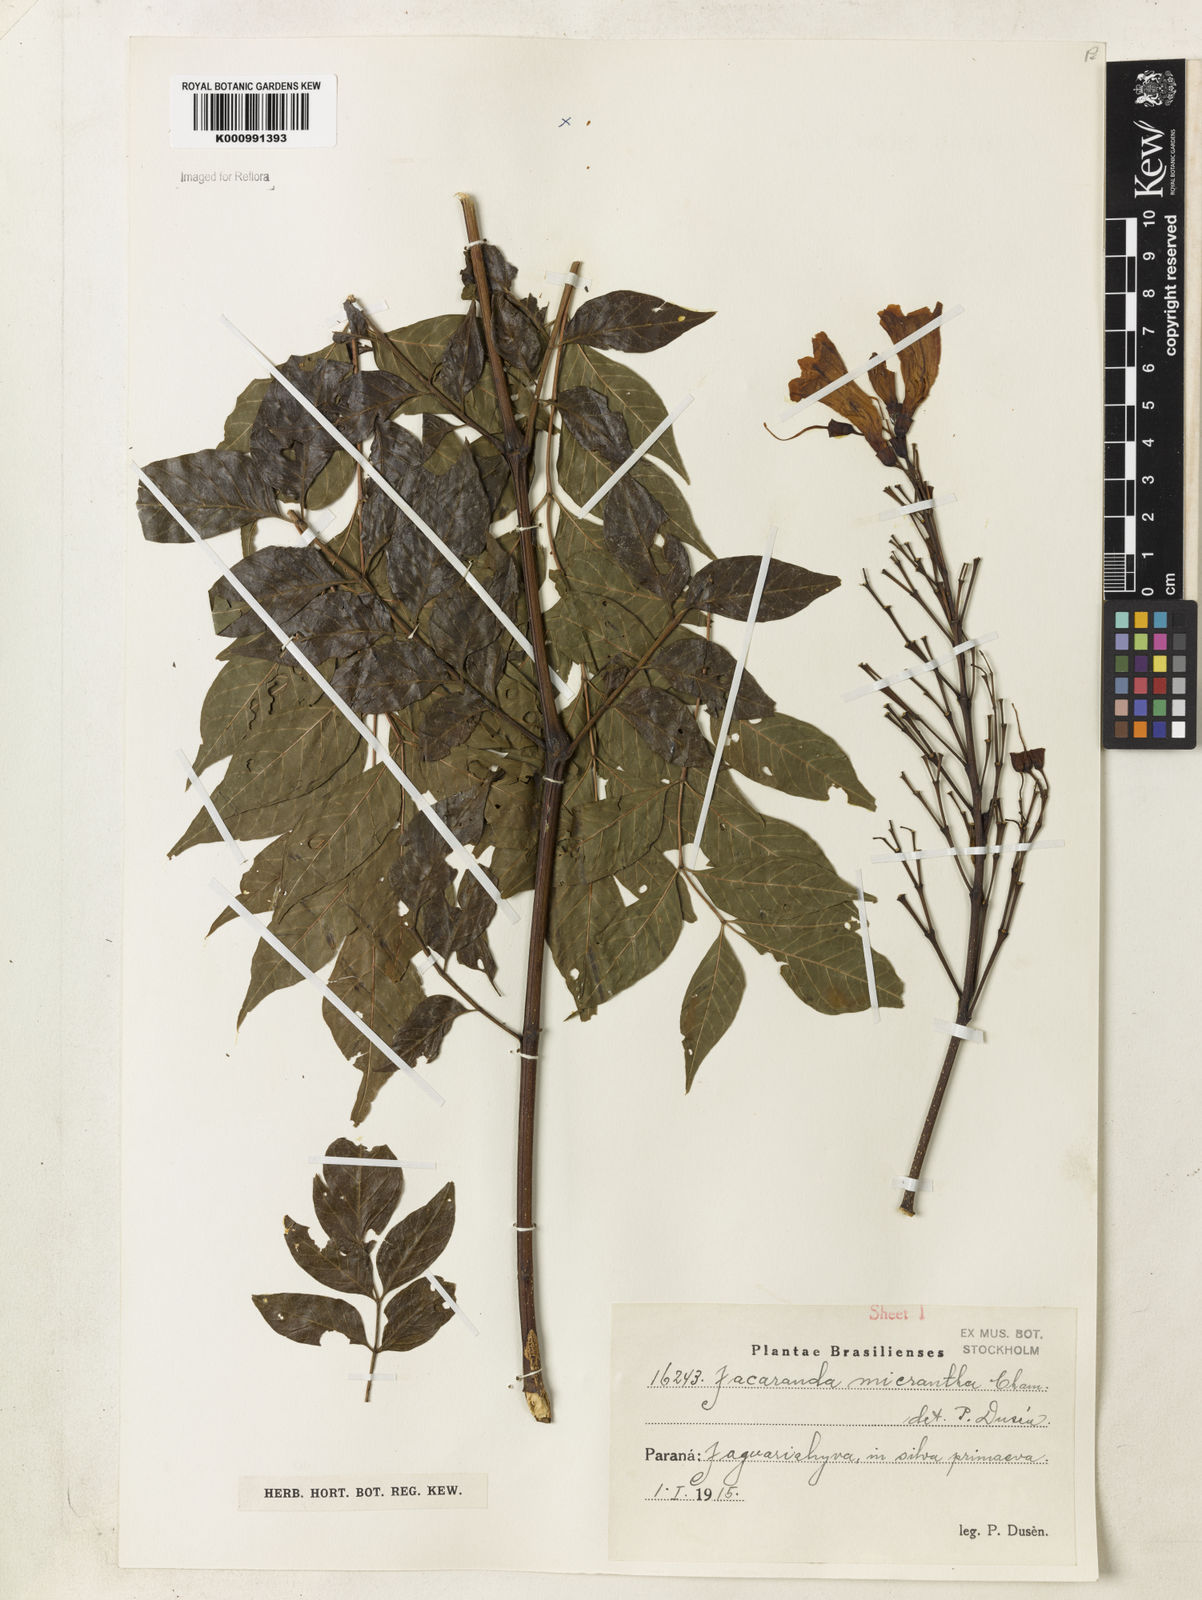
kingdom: Plantae
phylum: Tracheophyta
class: Magnoliopsida
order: Lamiales
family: Bignoniaceae
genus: Jacaranda
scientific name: Jacaranda micrantha
